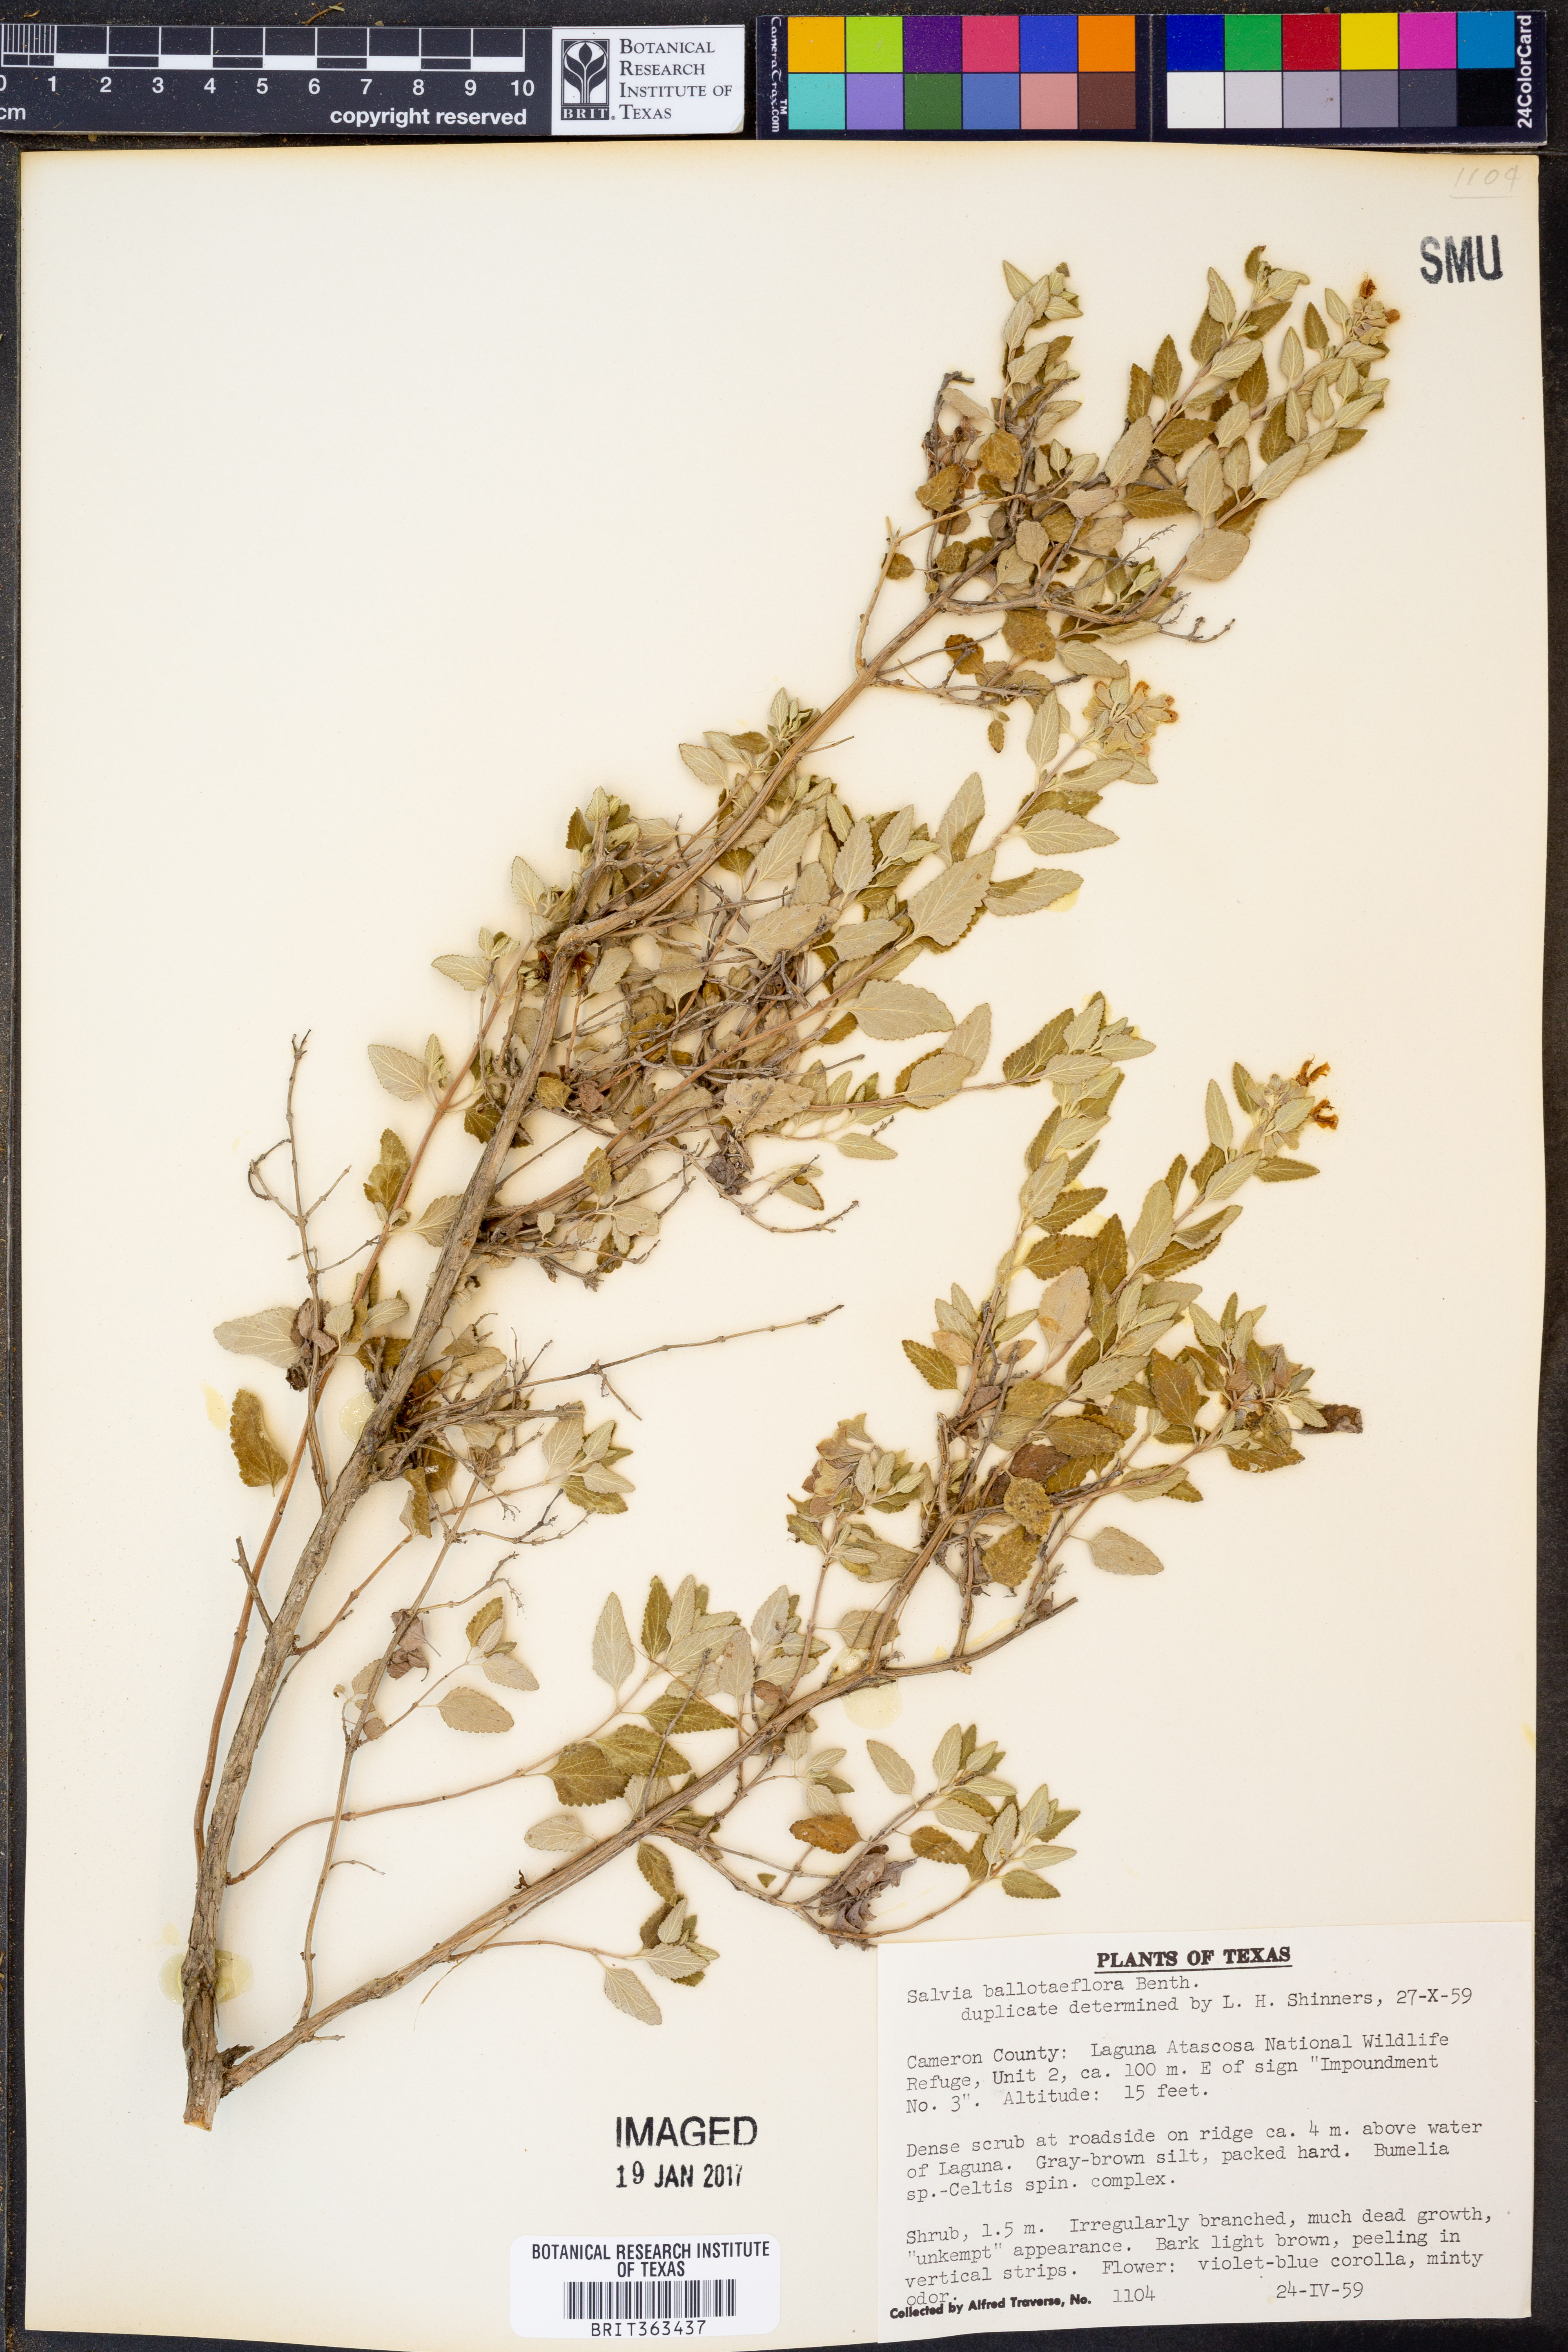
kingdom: Plantae
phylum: Tracheophyta
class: Magnoliopsida
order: Lamiales
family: Lamiaceae
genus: Salvia
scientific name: Salvia ballotiflora
